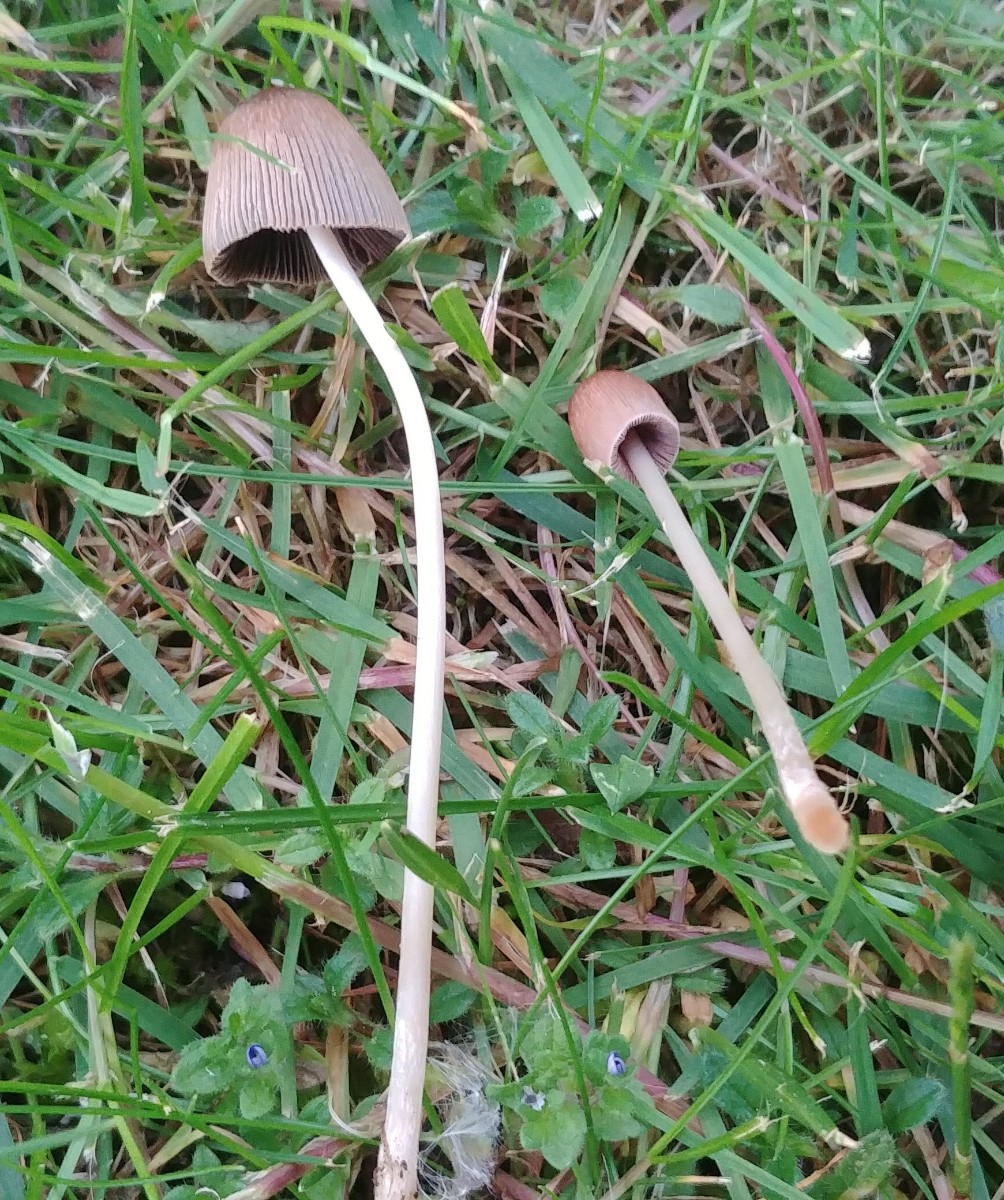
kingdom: Fungi
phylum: Basidiomycota
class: Agaricomycetes
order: Agaricales
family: Psathyrellaceae
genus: Parasola
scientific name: Parasola auricoma
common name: hansens hjulhat
